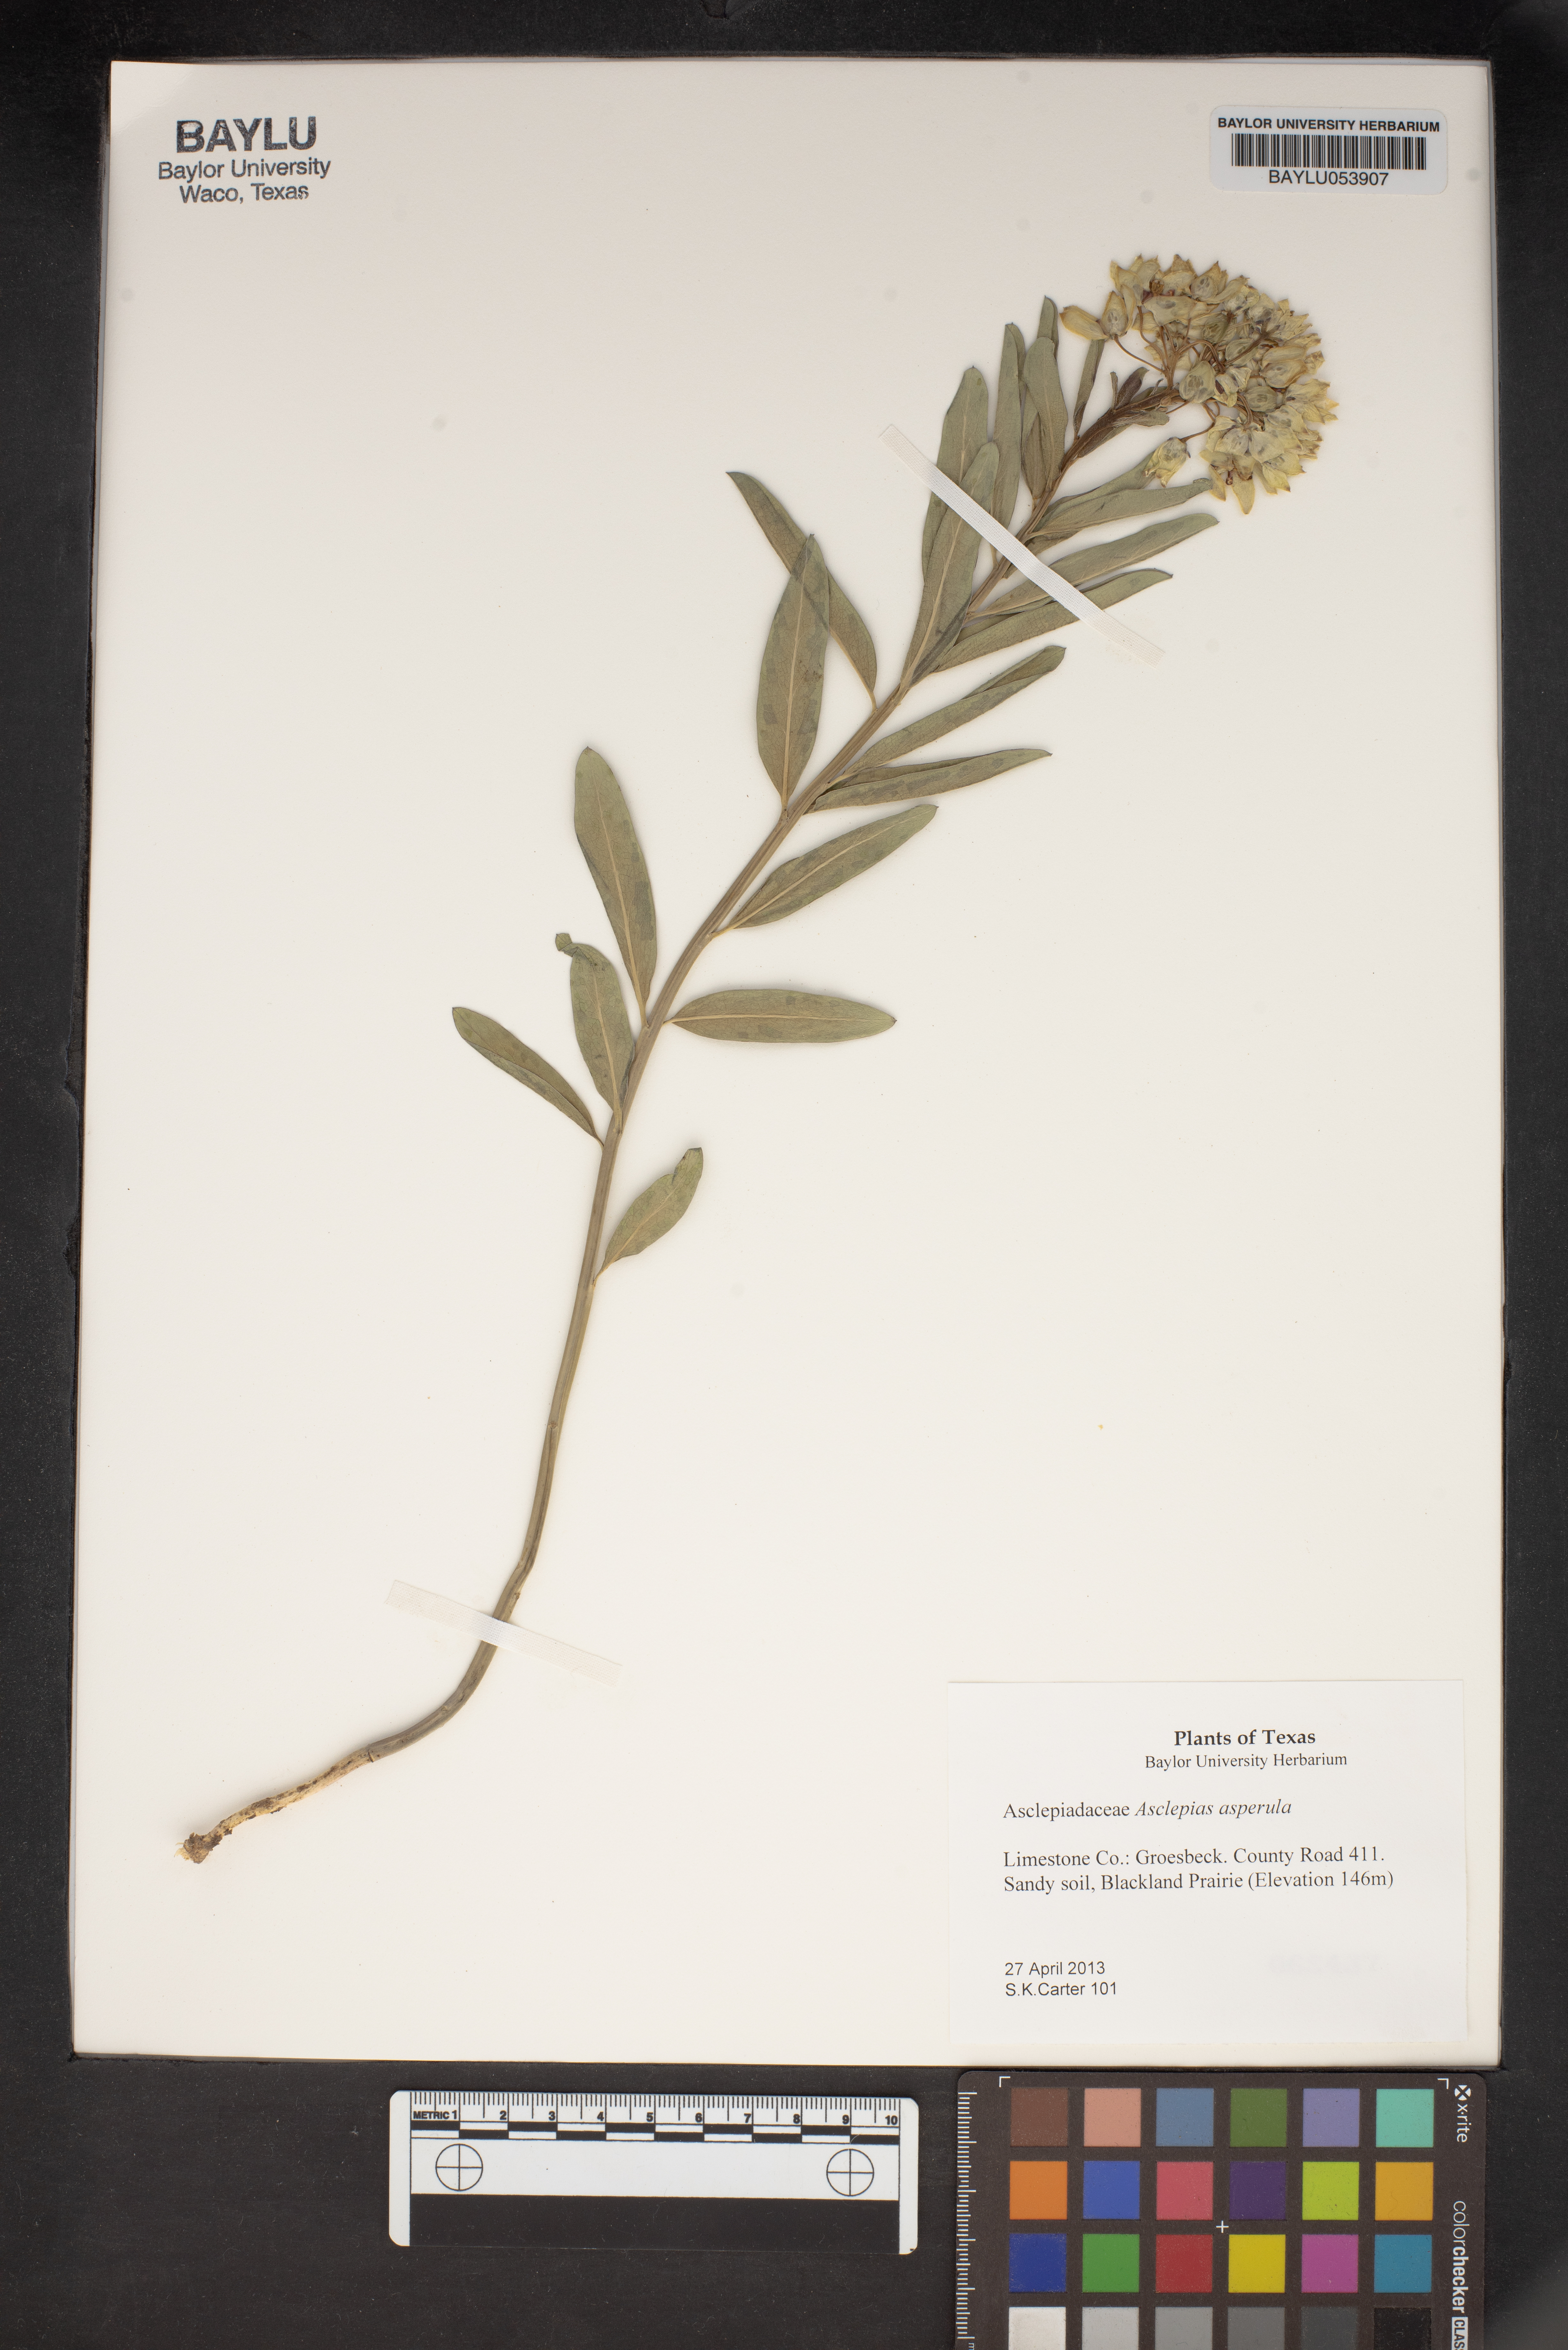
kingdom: Plantae
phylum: Tracheophyta
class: Magnoliopsida
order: Gentianales
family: Apocynaceae
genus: Asclepias
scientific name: Asclepias asperula
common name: Antelope horns
